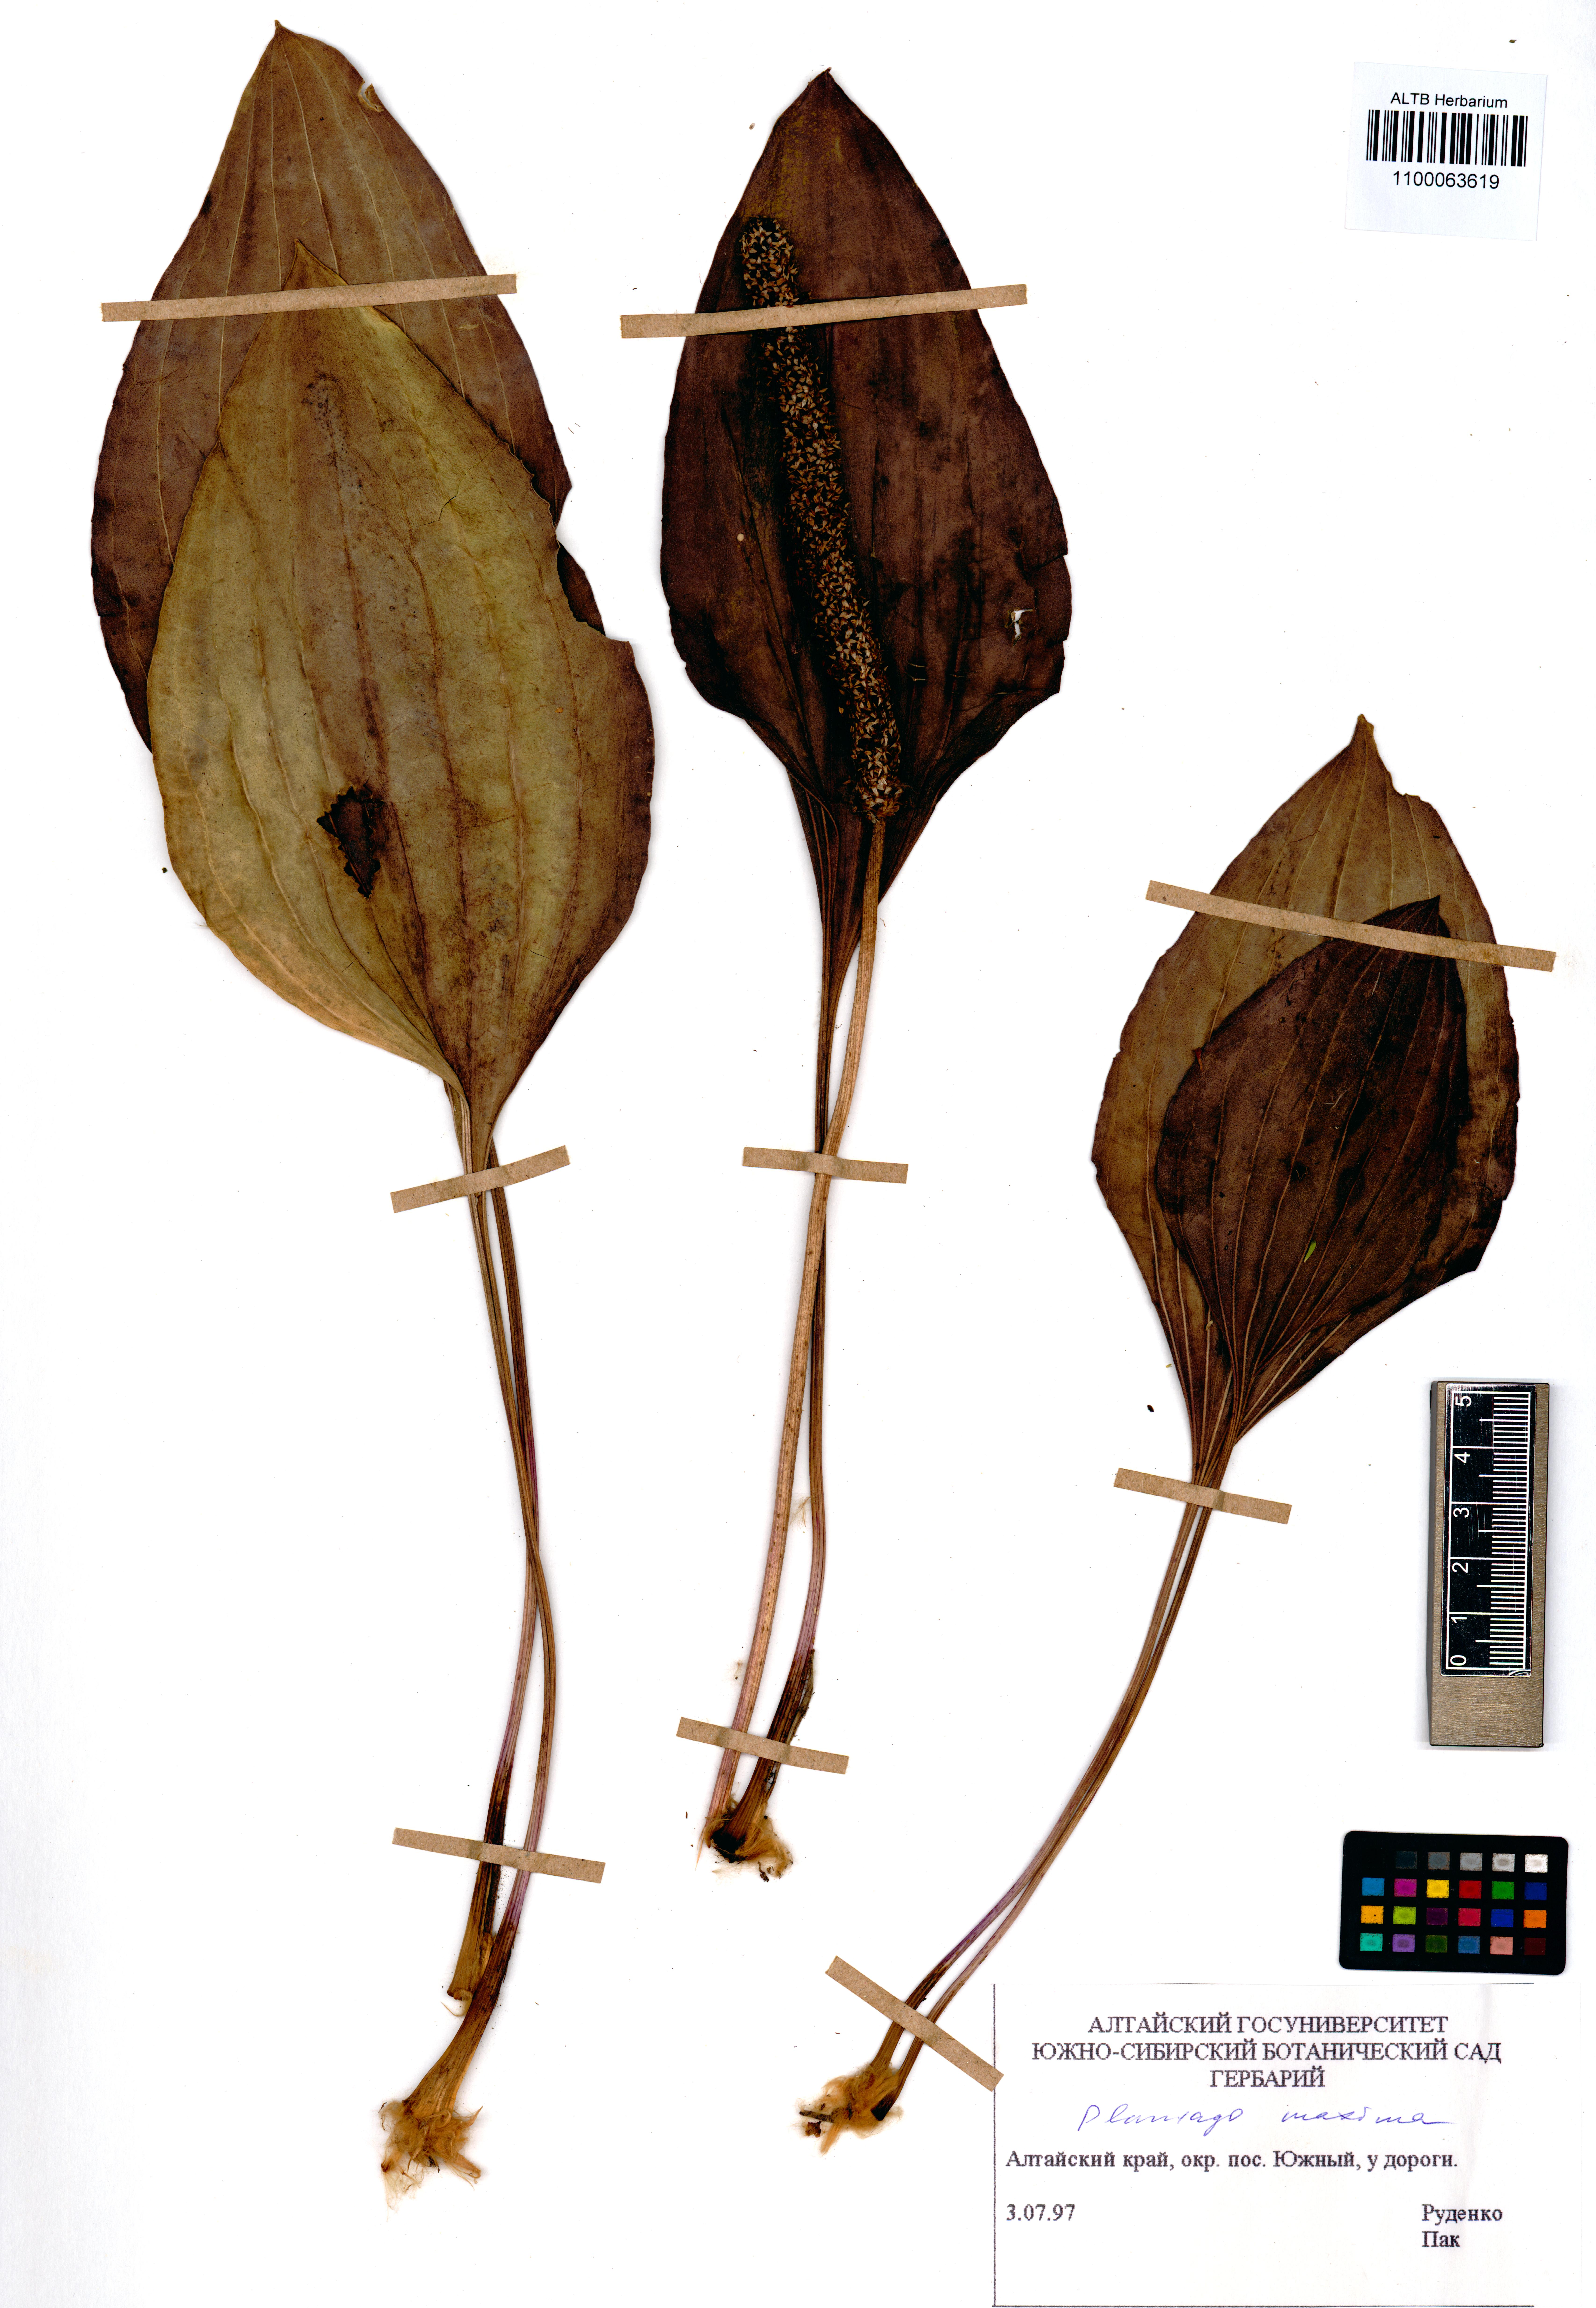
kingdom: Plantae
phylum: Tracheophyta
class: Magnoliopsida
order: Lamiales
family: Plantaginaceae
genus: Plantago
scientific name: Plantago maxima
